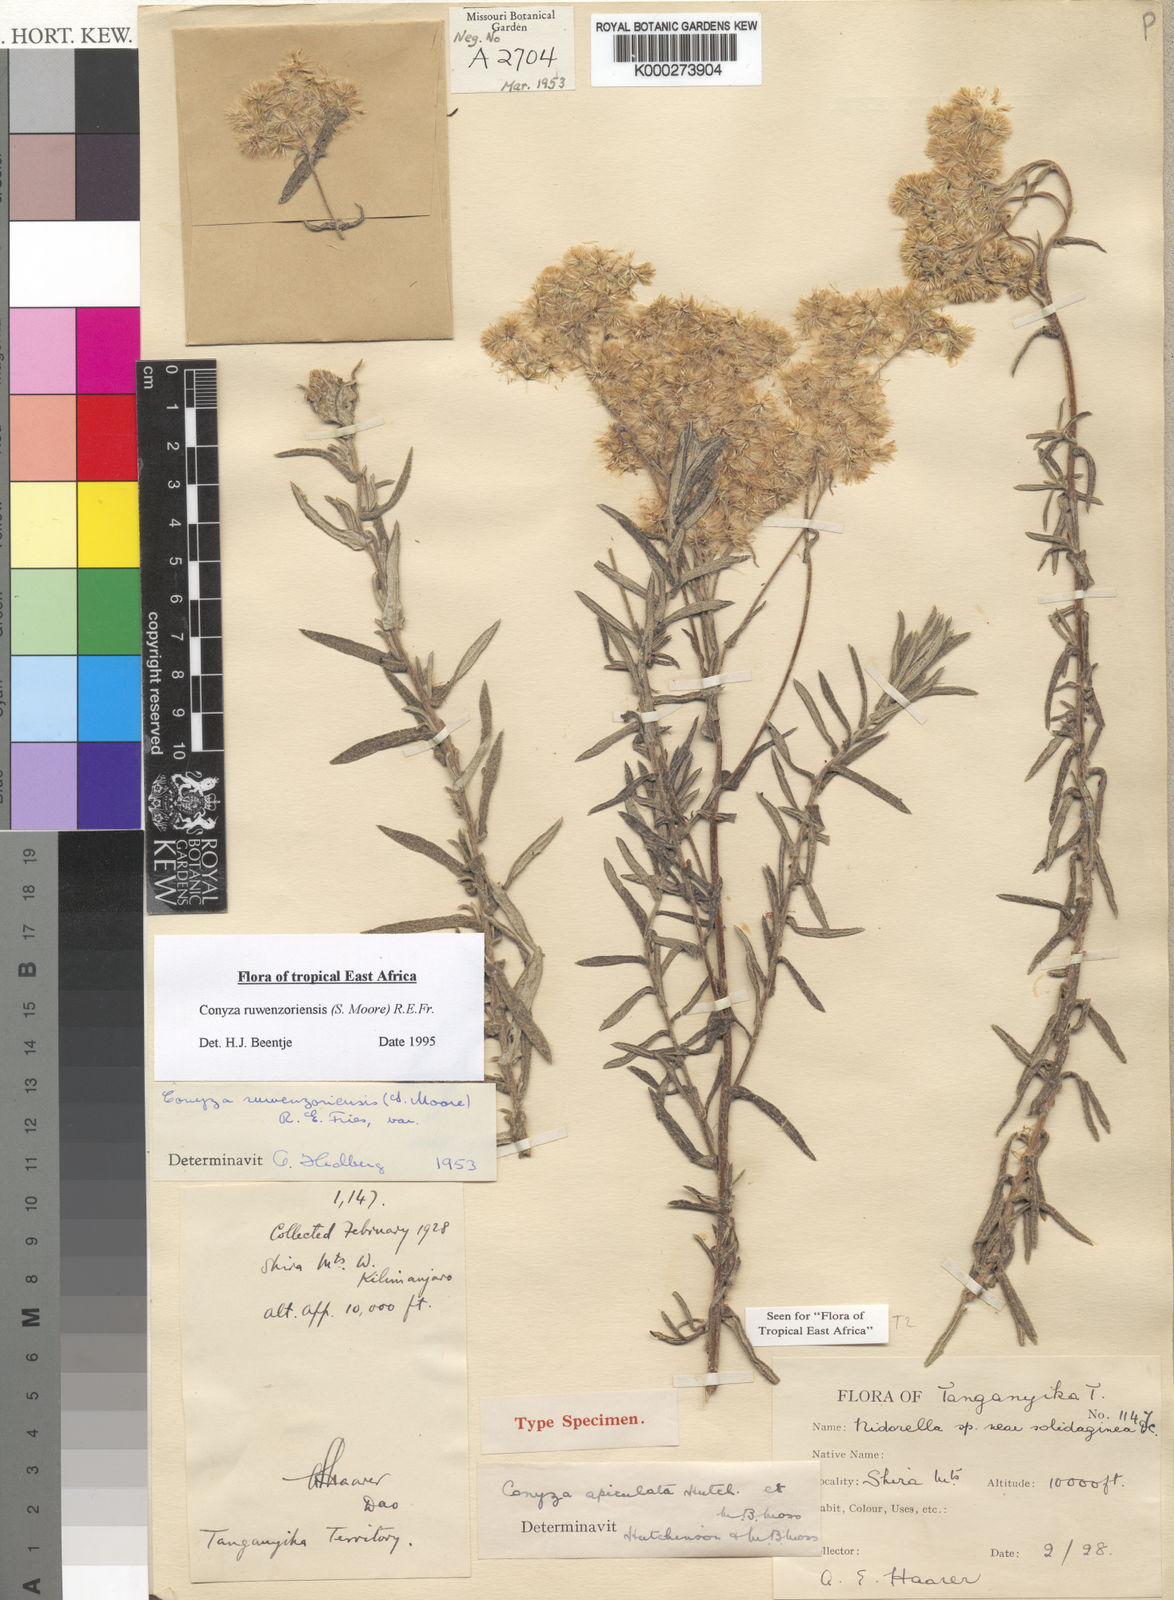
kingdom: Plantae
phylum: Tracheophyta
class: Magnoliopsida
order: Asterales
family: Asteraceae
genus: Nidorella
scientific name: Nidorella welwitschii
